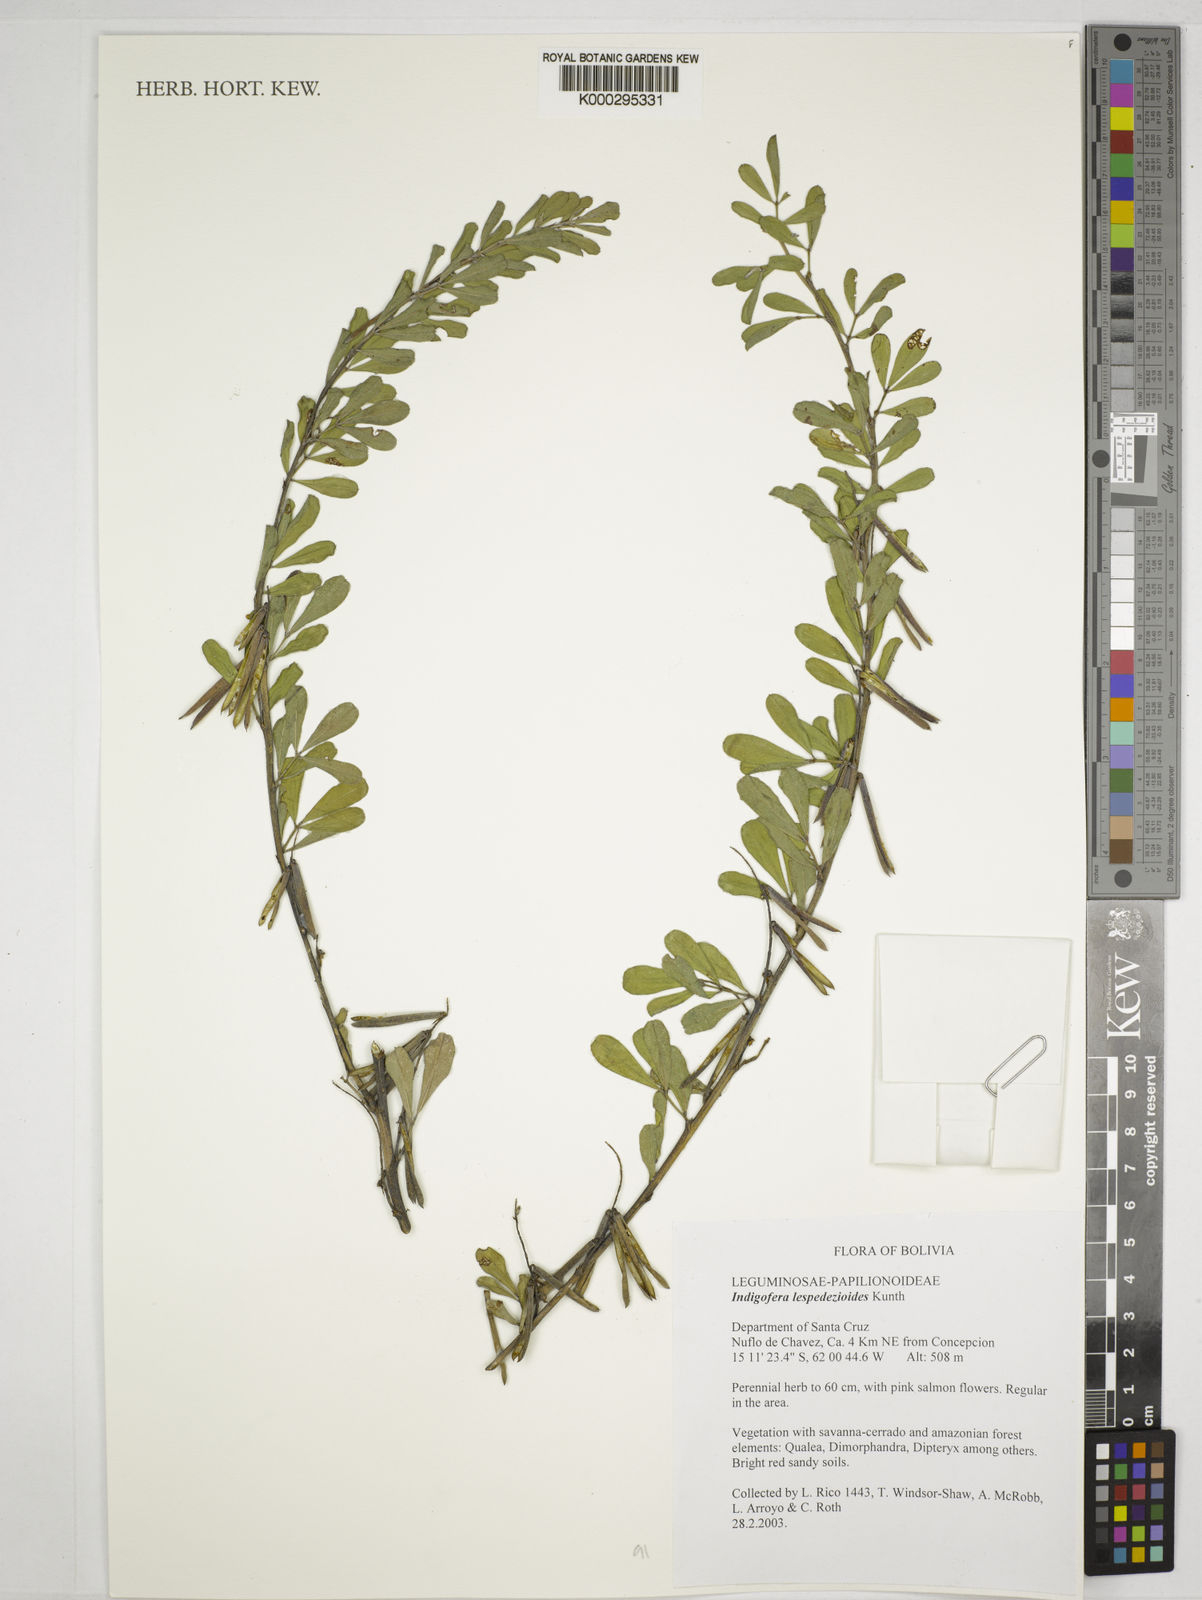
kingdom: Plantae
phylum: Tracheophyta
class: Magnoliopsida
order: Fabales
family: Fabaceae
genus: Indigofera
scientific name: Indigofera lespedezioides
